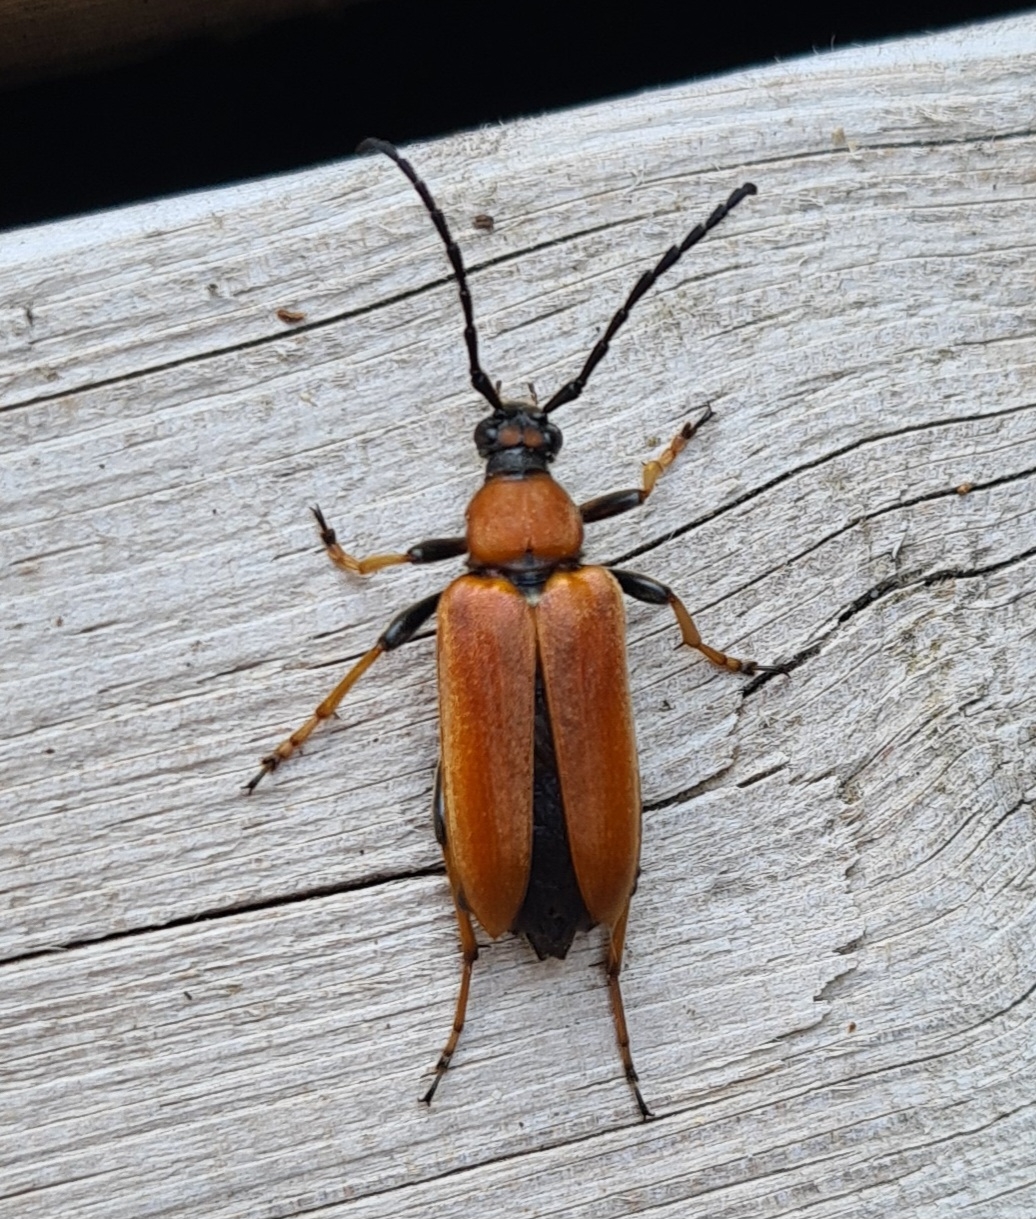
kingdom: Animalia
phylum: Arthropoda
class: Insecta
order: Coleoptera
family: Cerambycidae
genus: Stictoleptura
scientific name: Stictoleptura rubra
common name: Rød blomsterbuk
